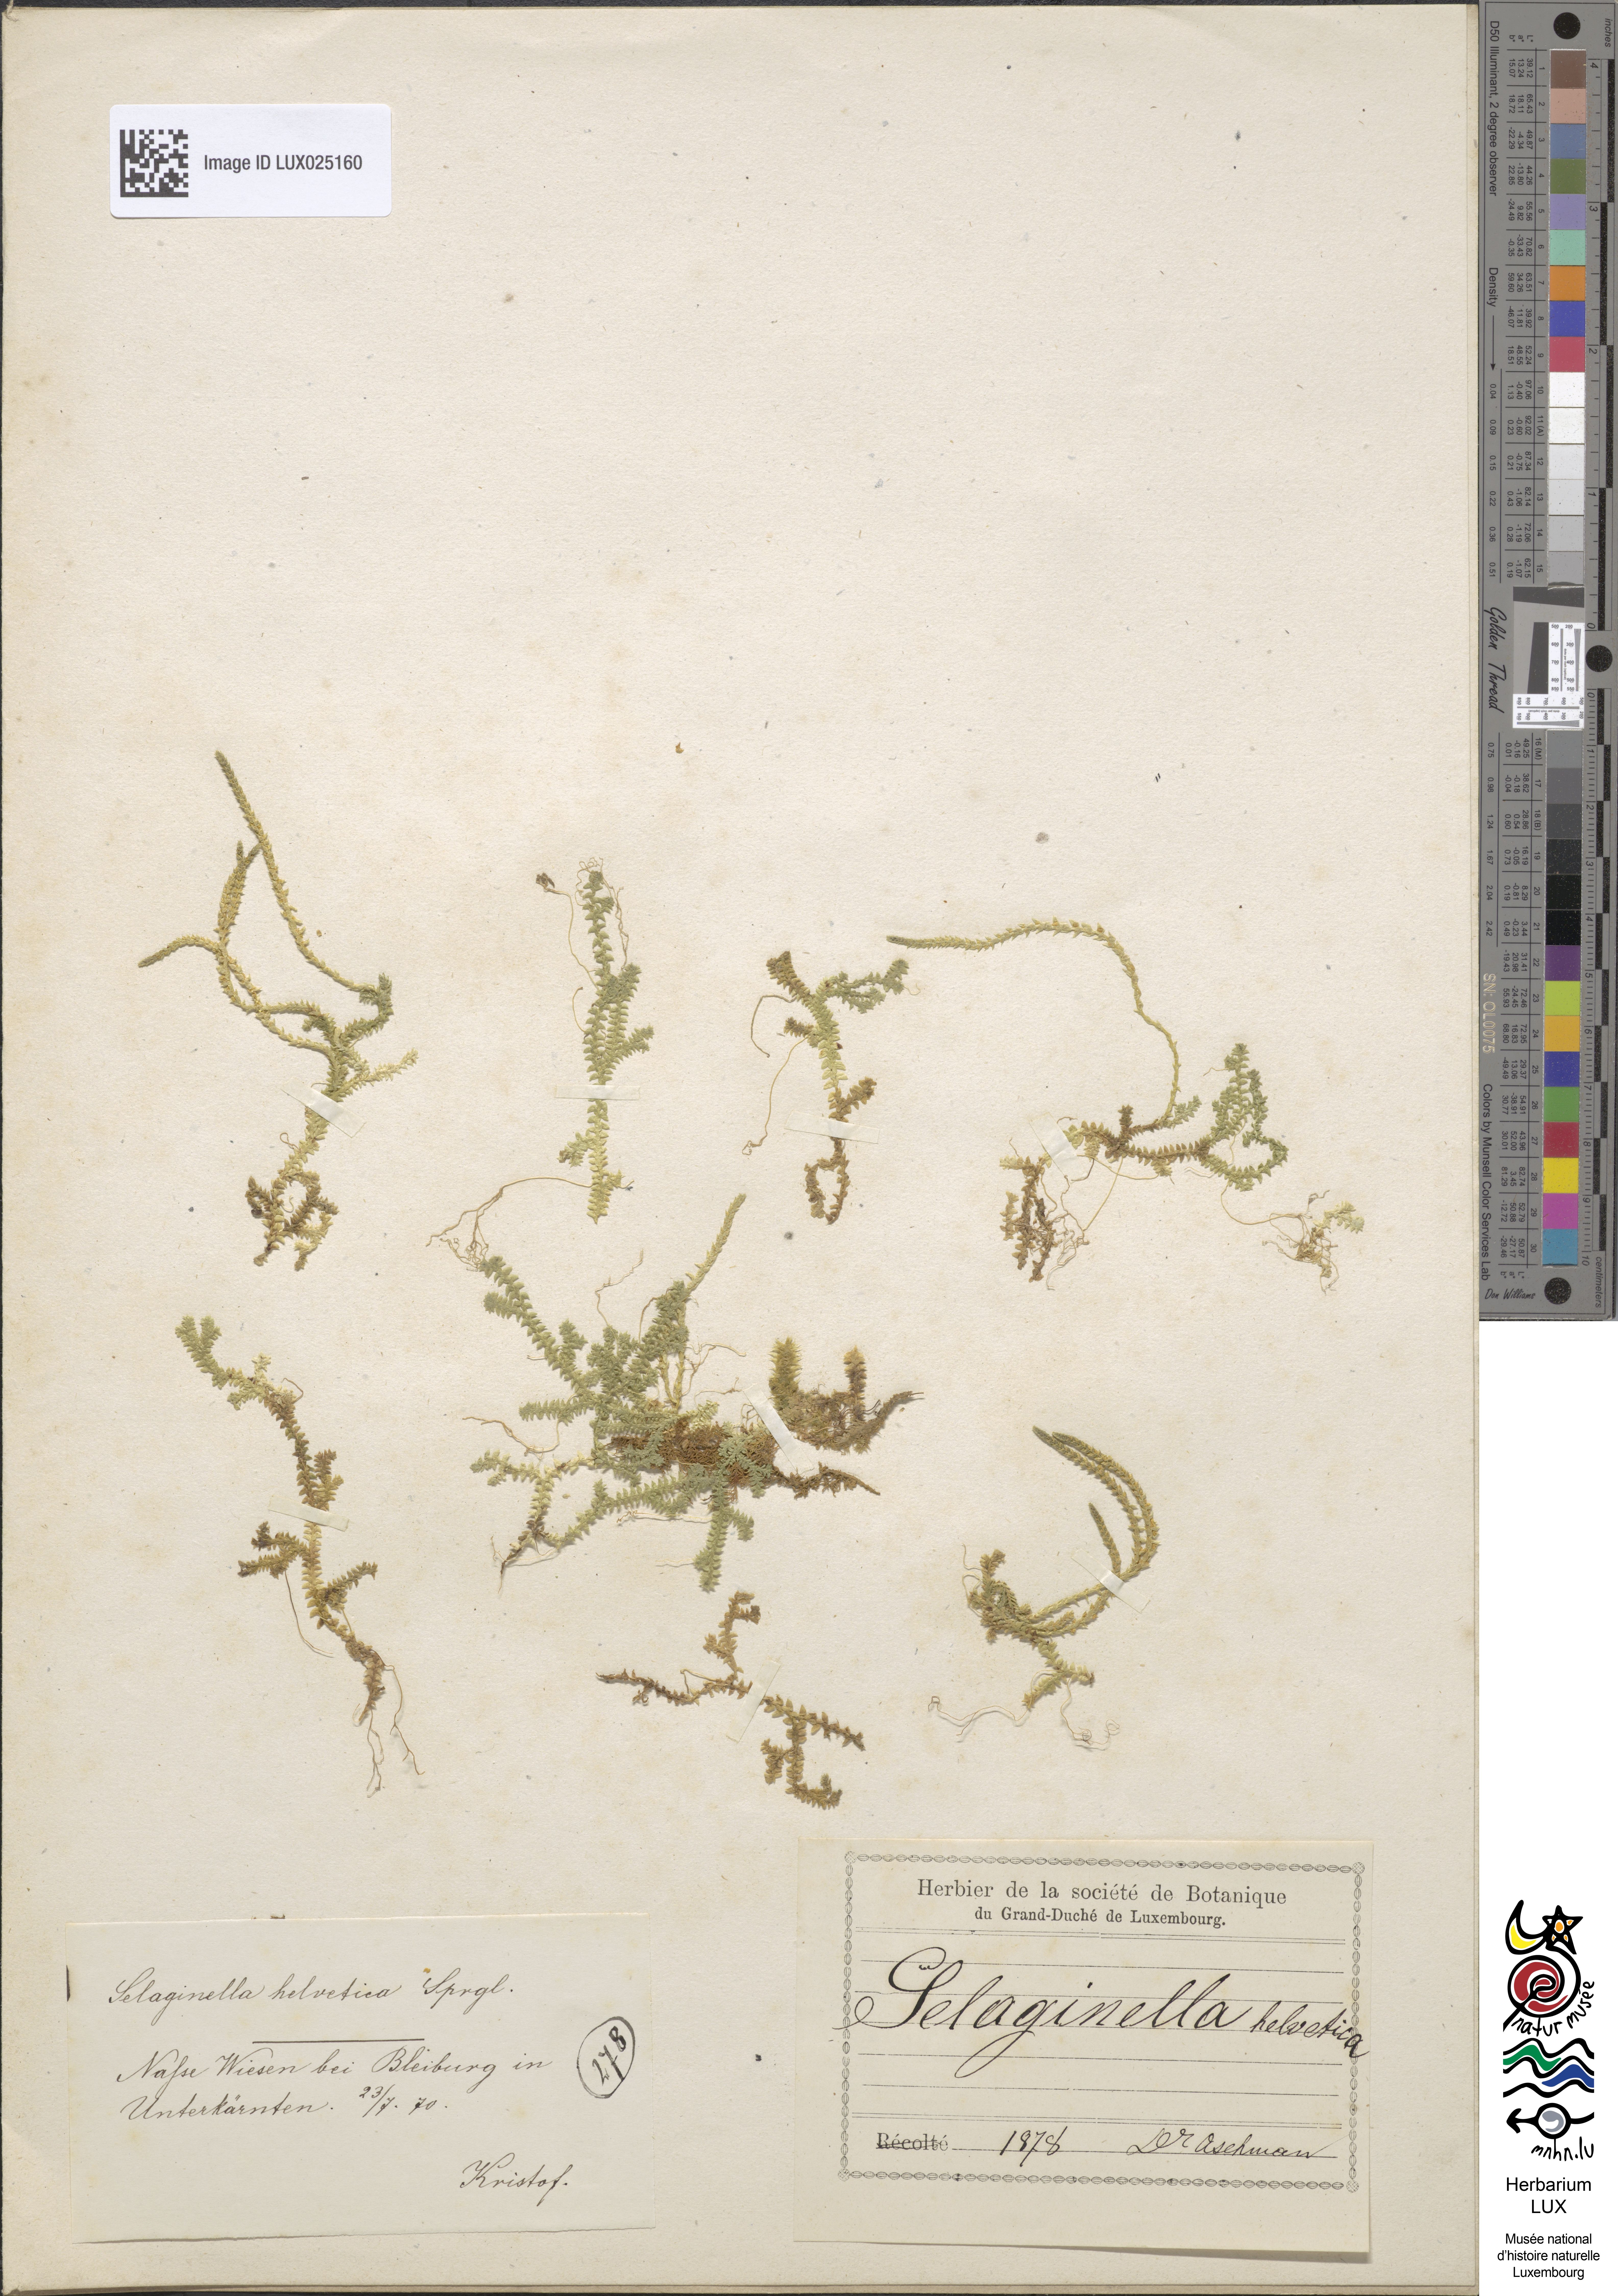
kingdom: Plantae
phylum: Tracheophyta
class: Lycopodiopsida
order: Selaginellales
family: Selaginellaceae
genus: Selaginella
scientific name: Selaginella helvetica
